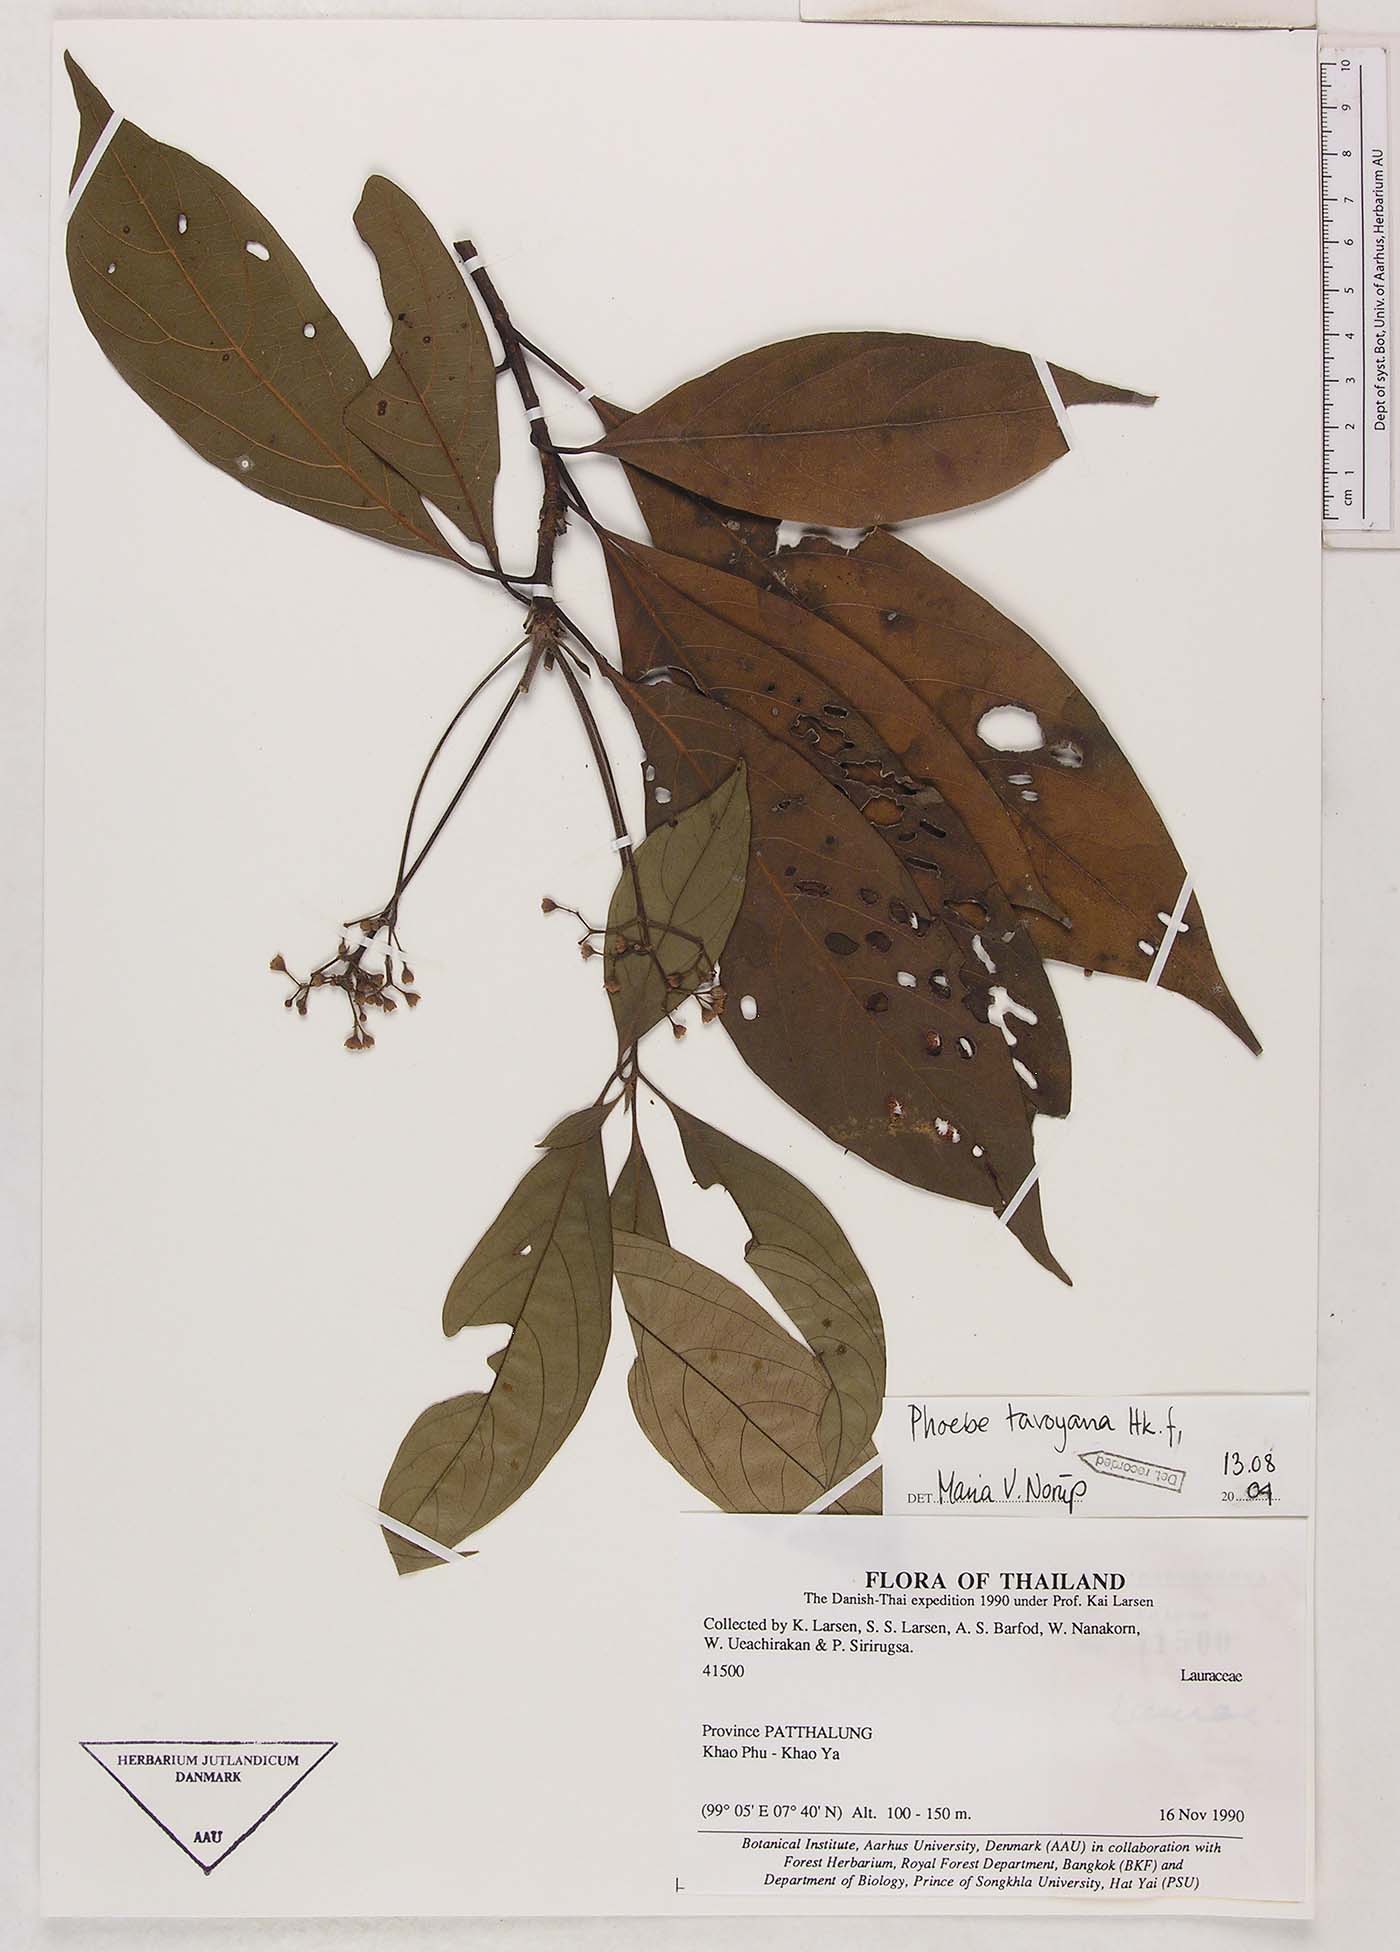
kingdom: Plantae
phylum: Tracheophyta
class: Magnoliopsida
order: Laurales
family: Lauraceae
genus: Phoebe
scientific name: Phoebe tavoyana
